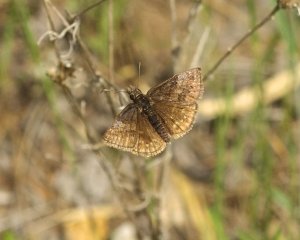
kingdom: Animalia
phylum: Arthropoda
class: Insecta
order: Lepidoptera
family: Hesperiidae
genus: Erynnis
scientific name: Erynnis icelus
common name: Dreamy Duskywing
